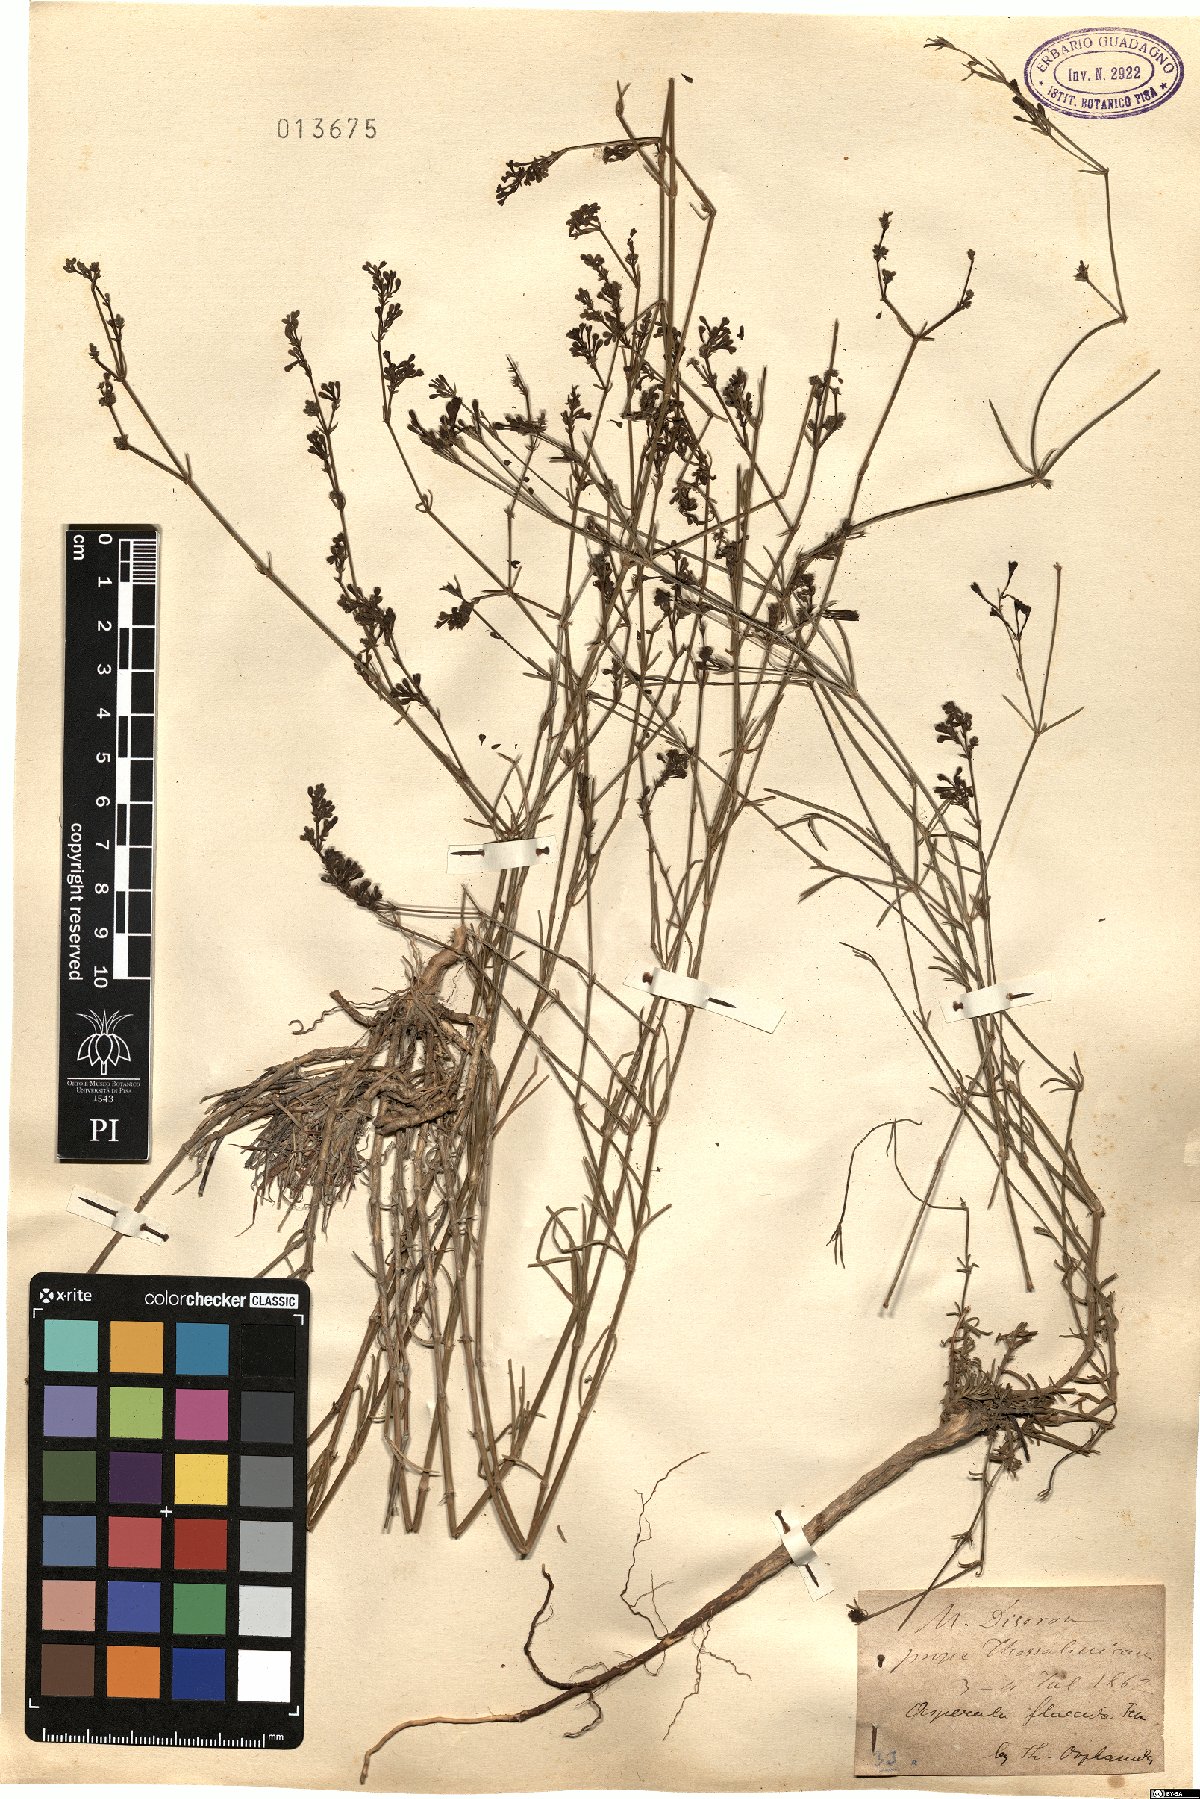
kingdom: Plantae
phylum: Tracheophyta
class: Magnoliopsida
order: Gentianales
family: Rubiaceae
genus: Cynanchica
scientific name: Cynanchica aristata
